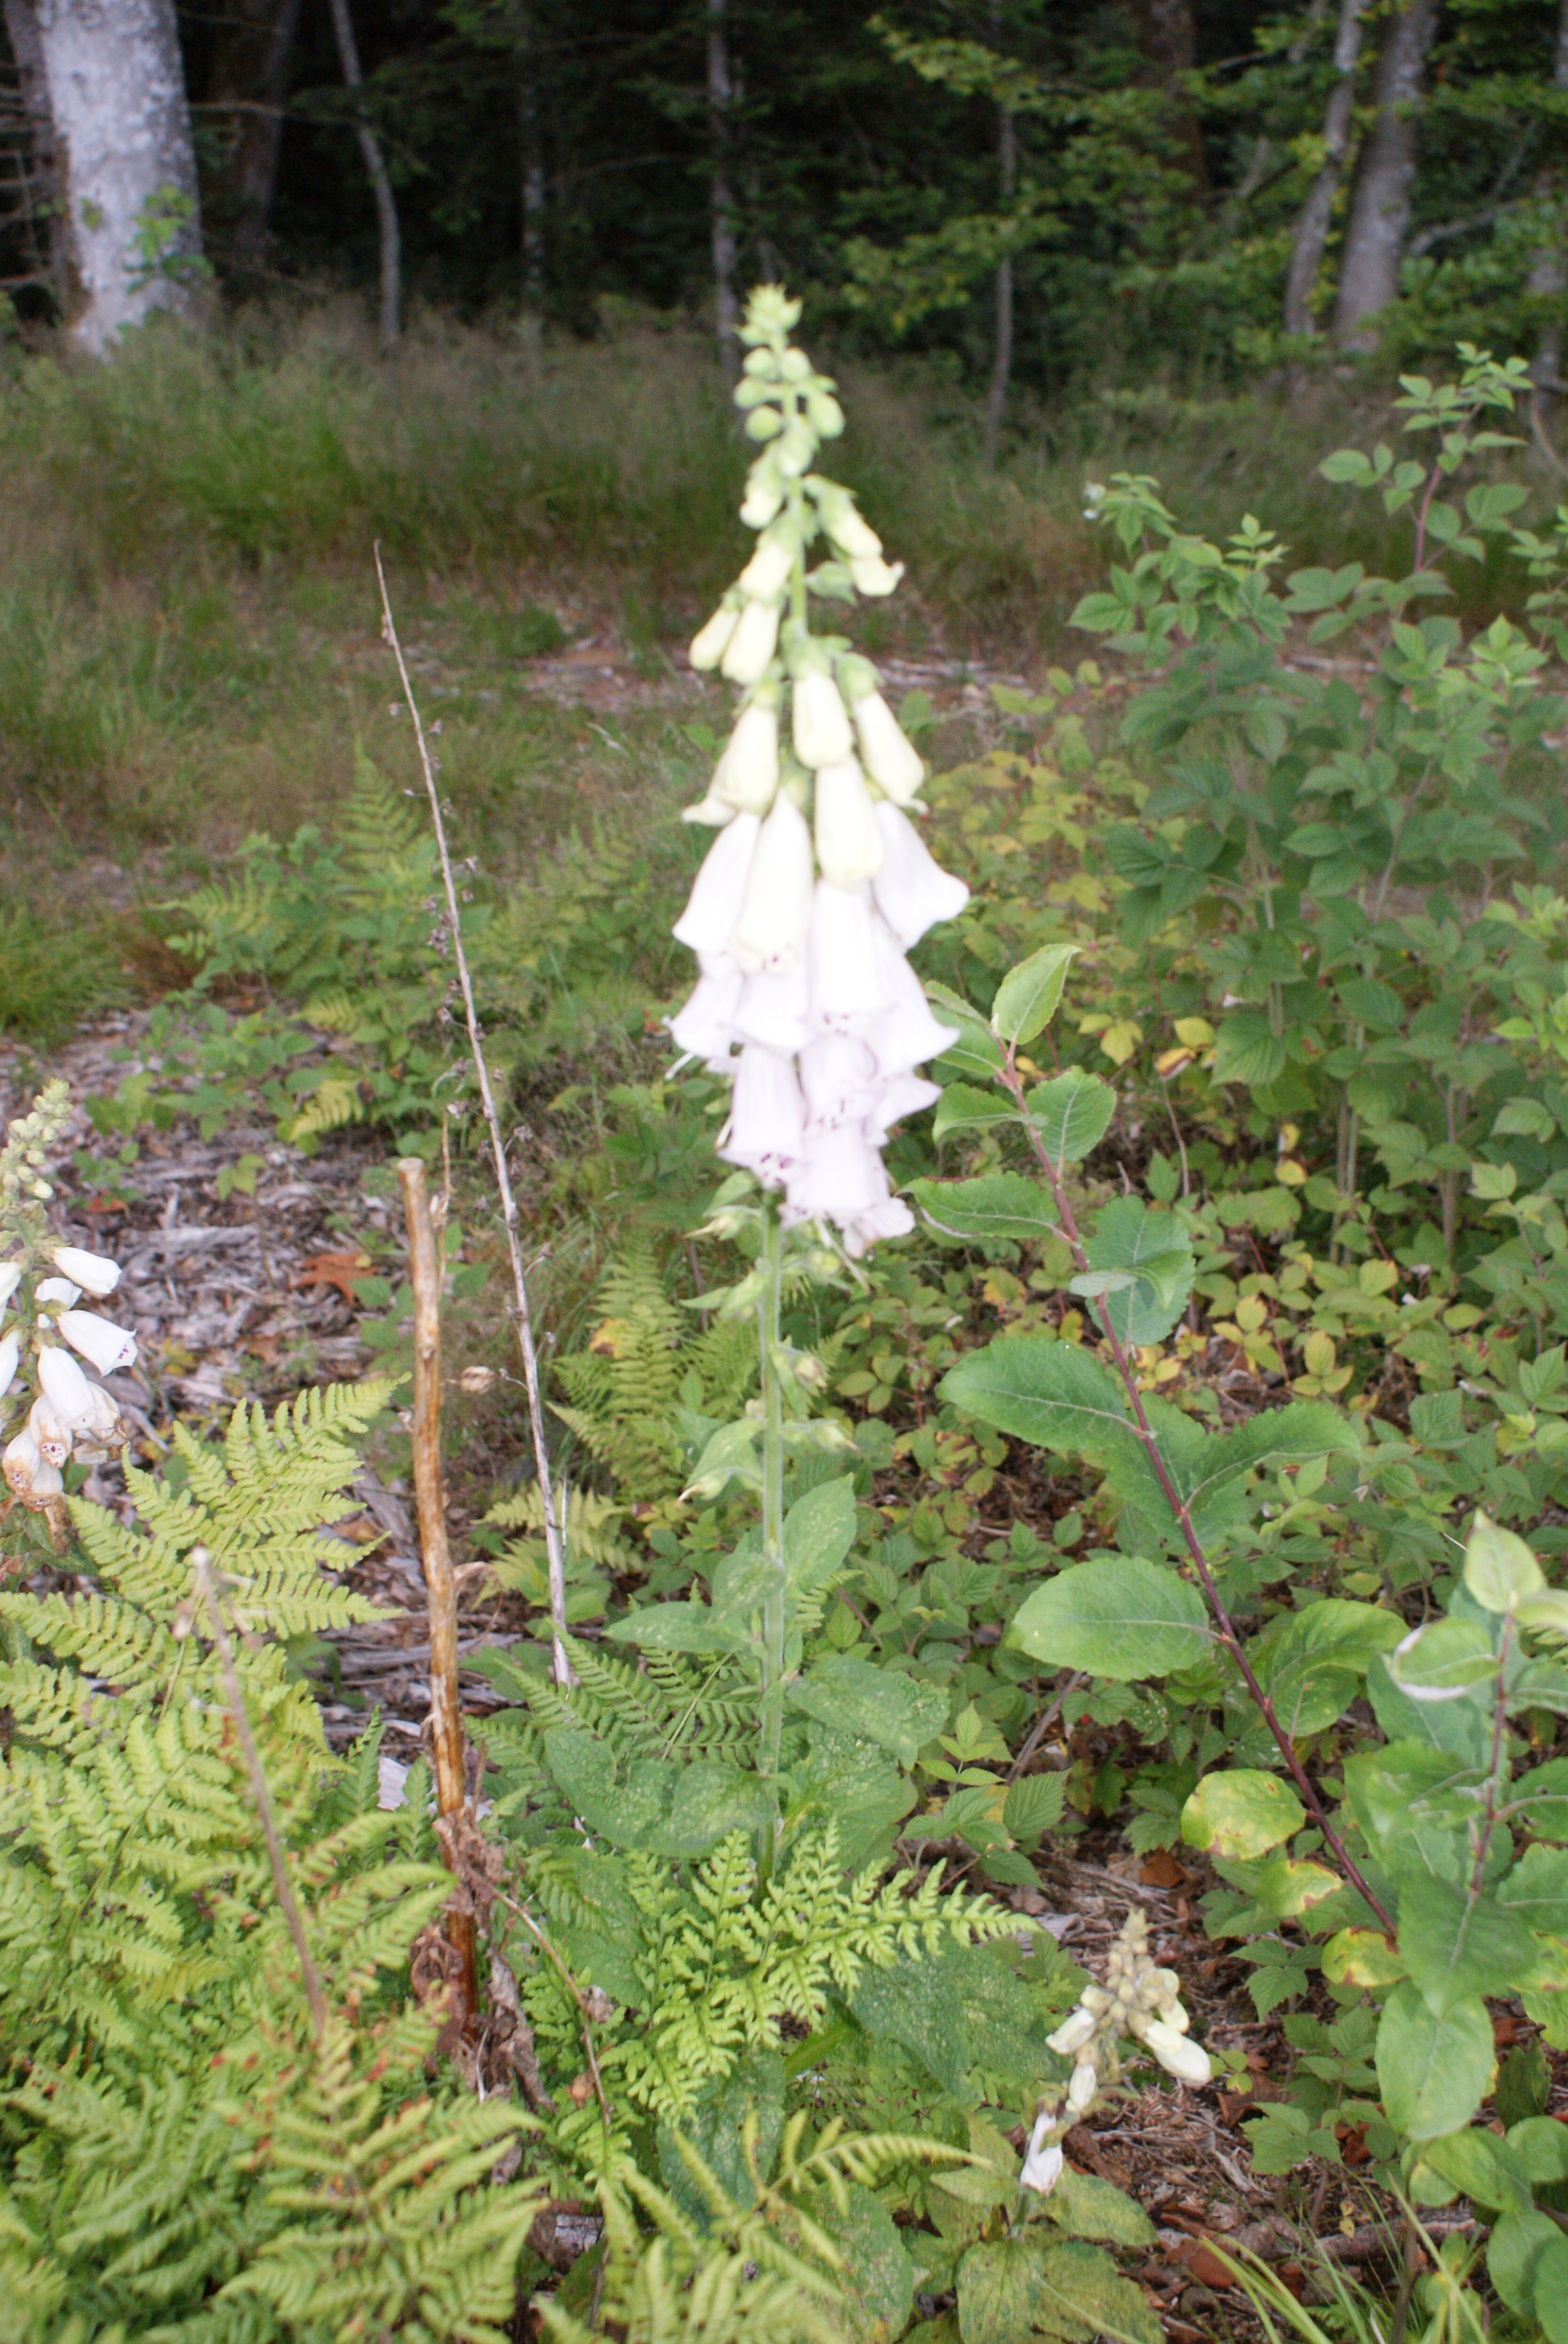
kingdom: Plantae
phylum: Tracheophyta
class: Magnoliopsida
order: Lamiales
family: Plantaginaceae
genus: Digitalis
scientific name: Digitalis purpurea
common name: Almindelig fingerbøl
